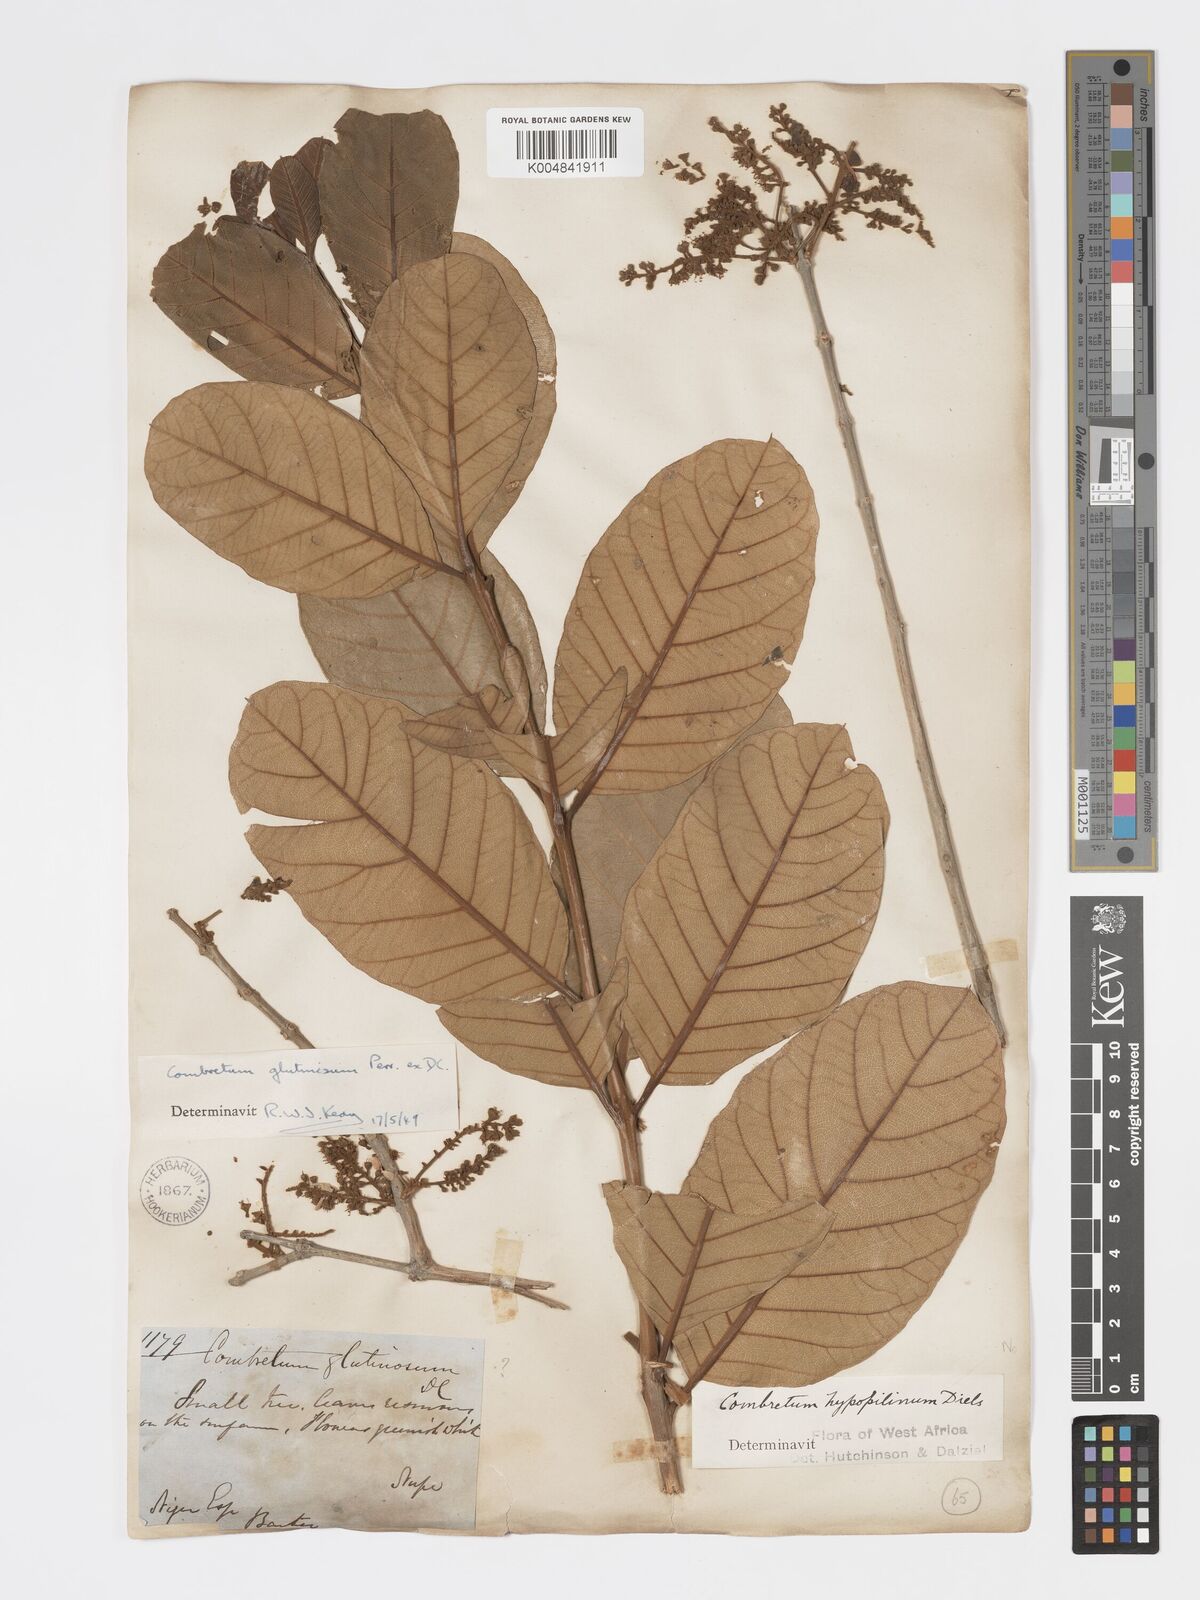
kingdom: Plantae
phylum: Tracheophyta
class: Magnoliopsida
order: Myrtales
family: Combretaceae
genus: Combretum
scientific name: Combretum
